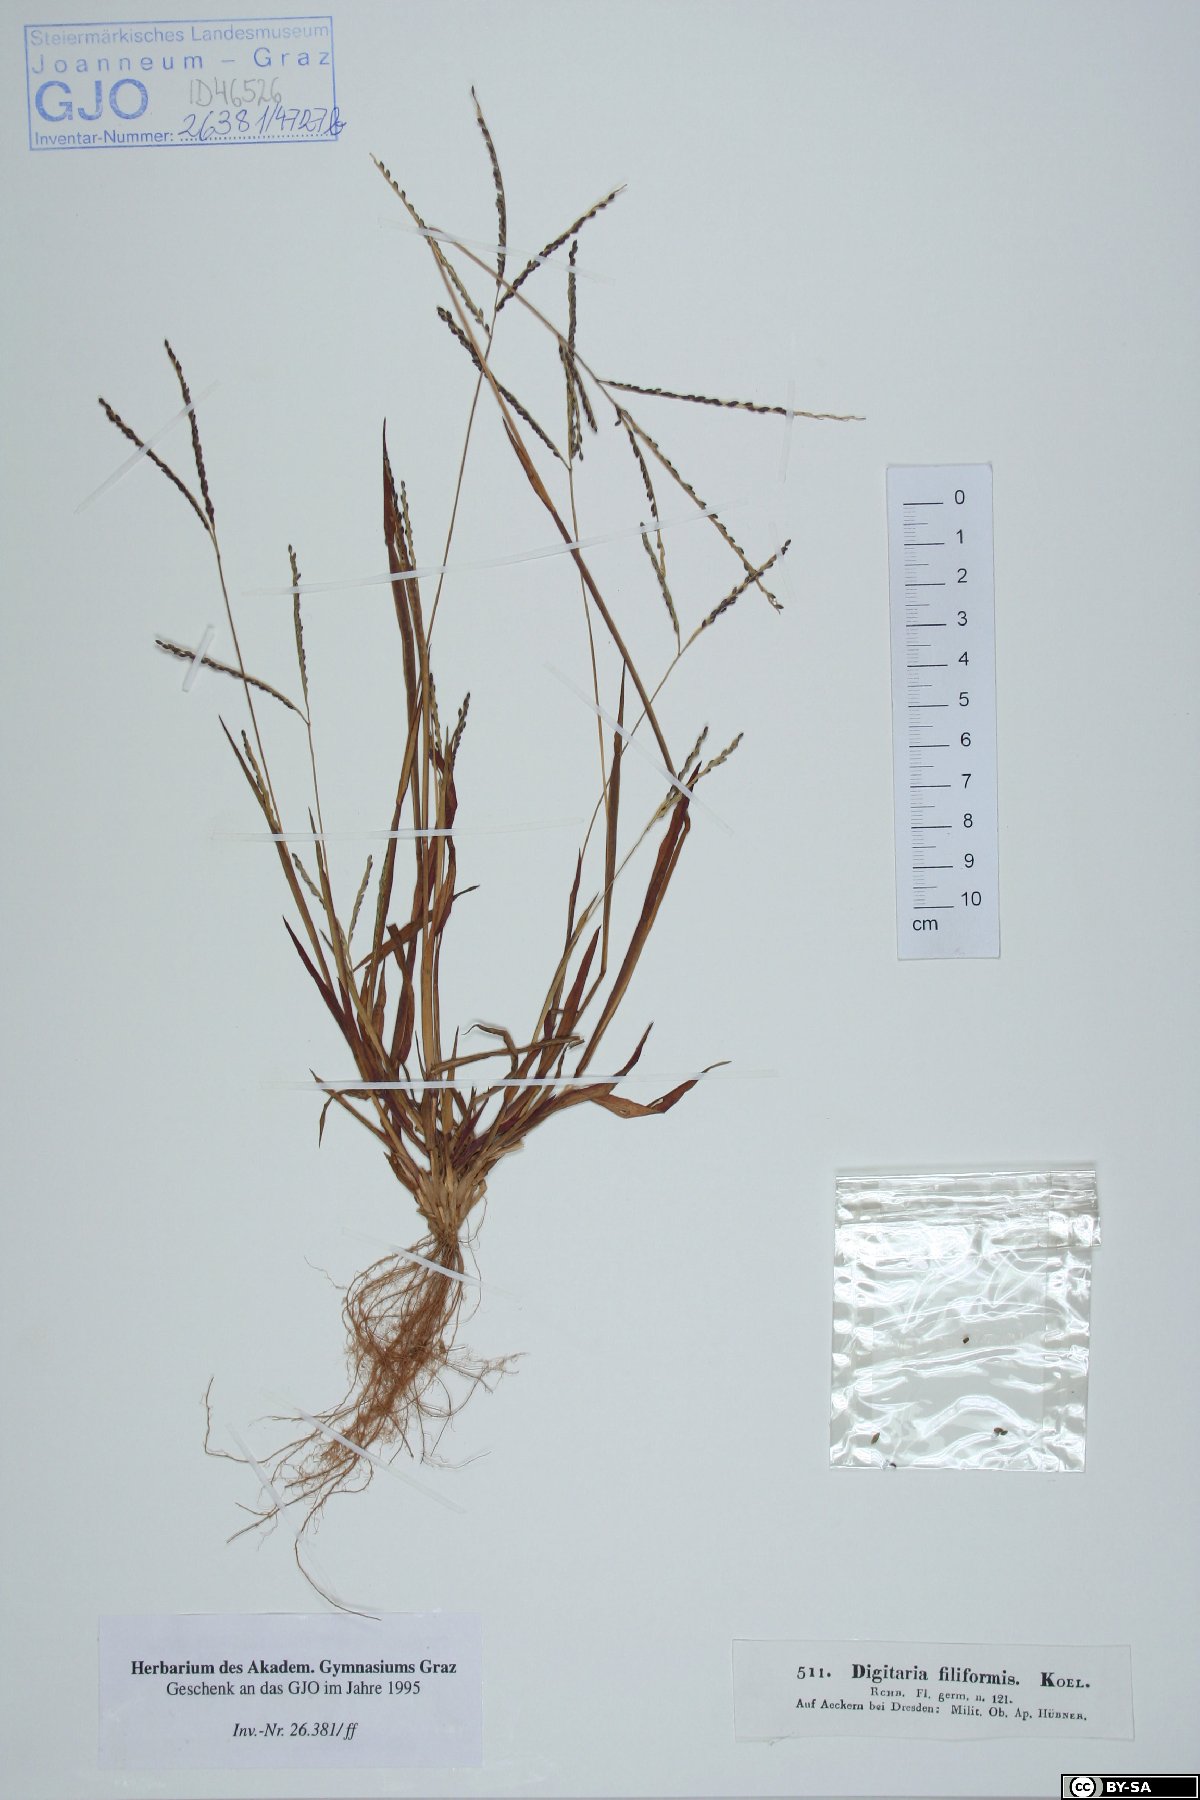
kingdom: Plantae
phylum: Tracheophyta
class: Liliopsida
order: Poales
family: Poaceae
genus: Digitaria
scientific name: Digitaria filiformis
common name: Slender crabgrass
